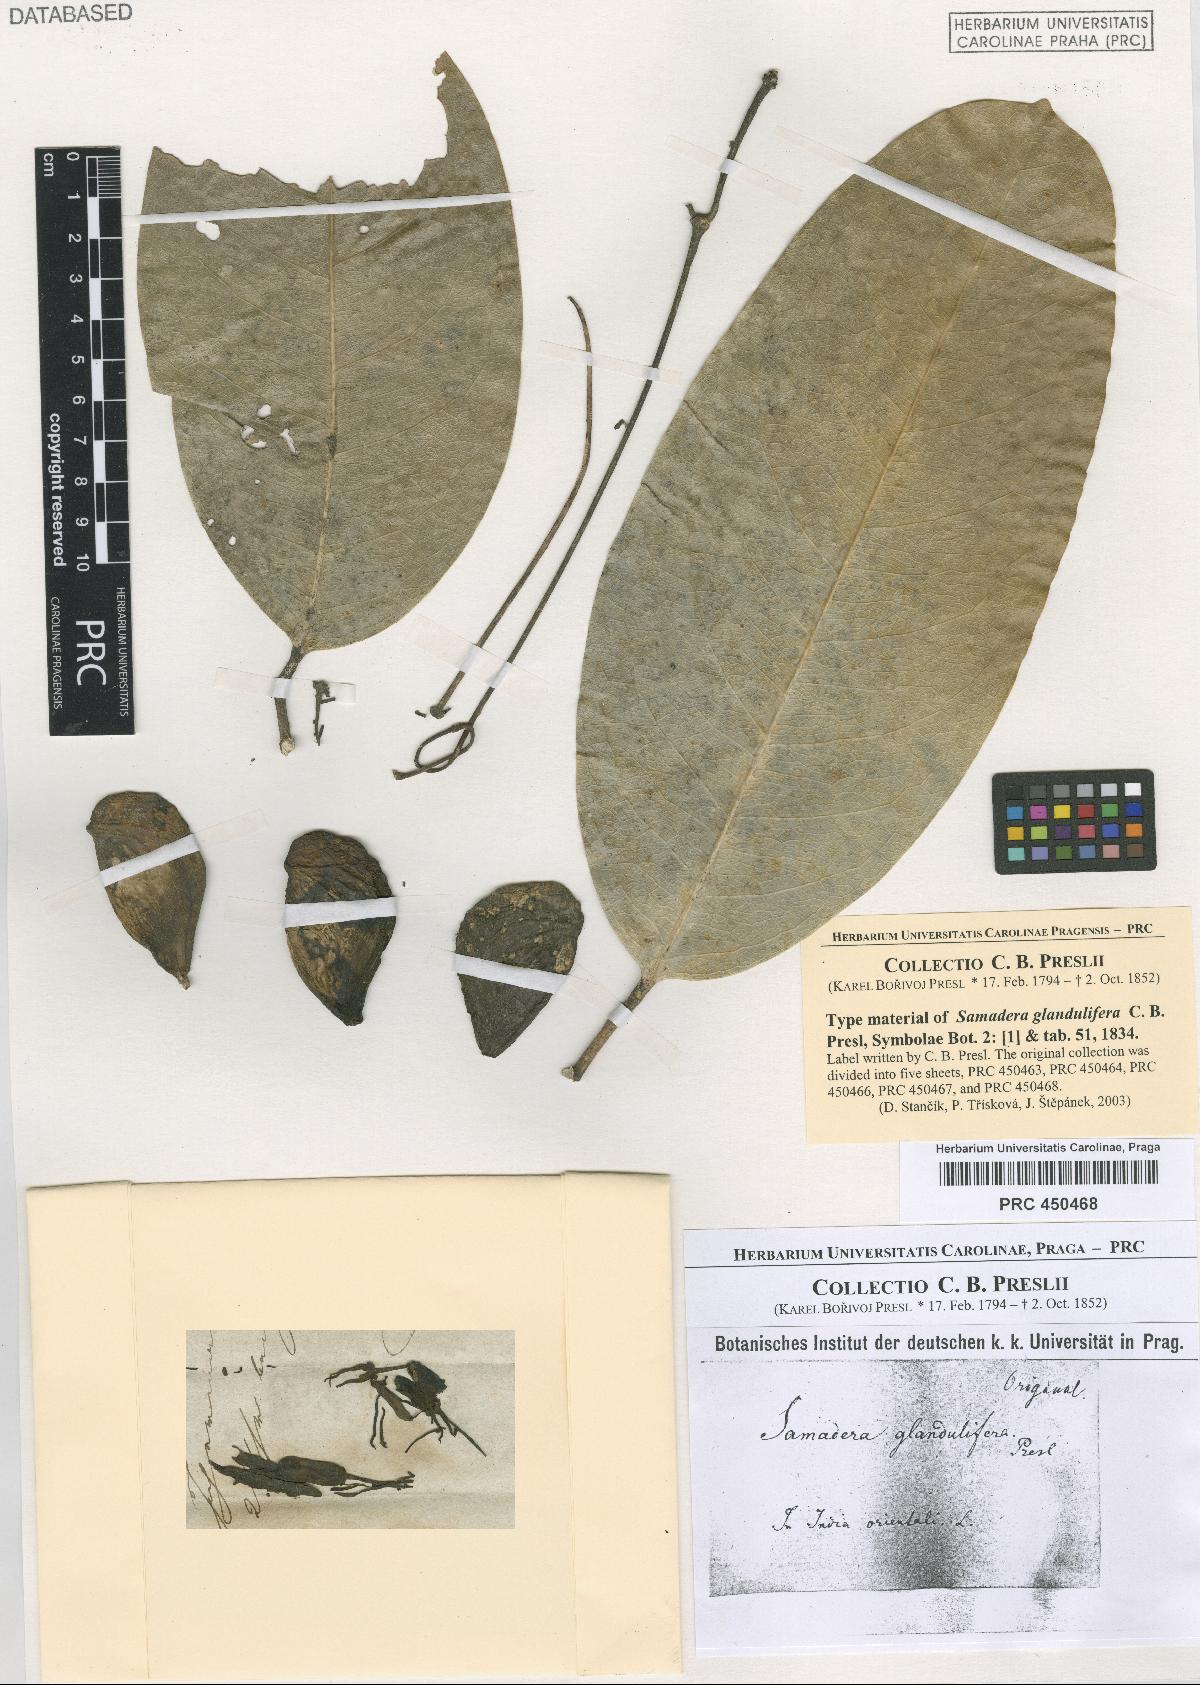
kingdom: Plantae
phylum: Tracheophyta
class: Magnoliopsida
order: Sapindales
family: Simaroubaceae
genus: Samadera
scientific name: Samadera indica
